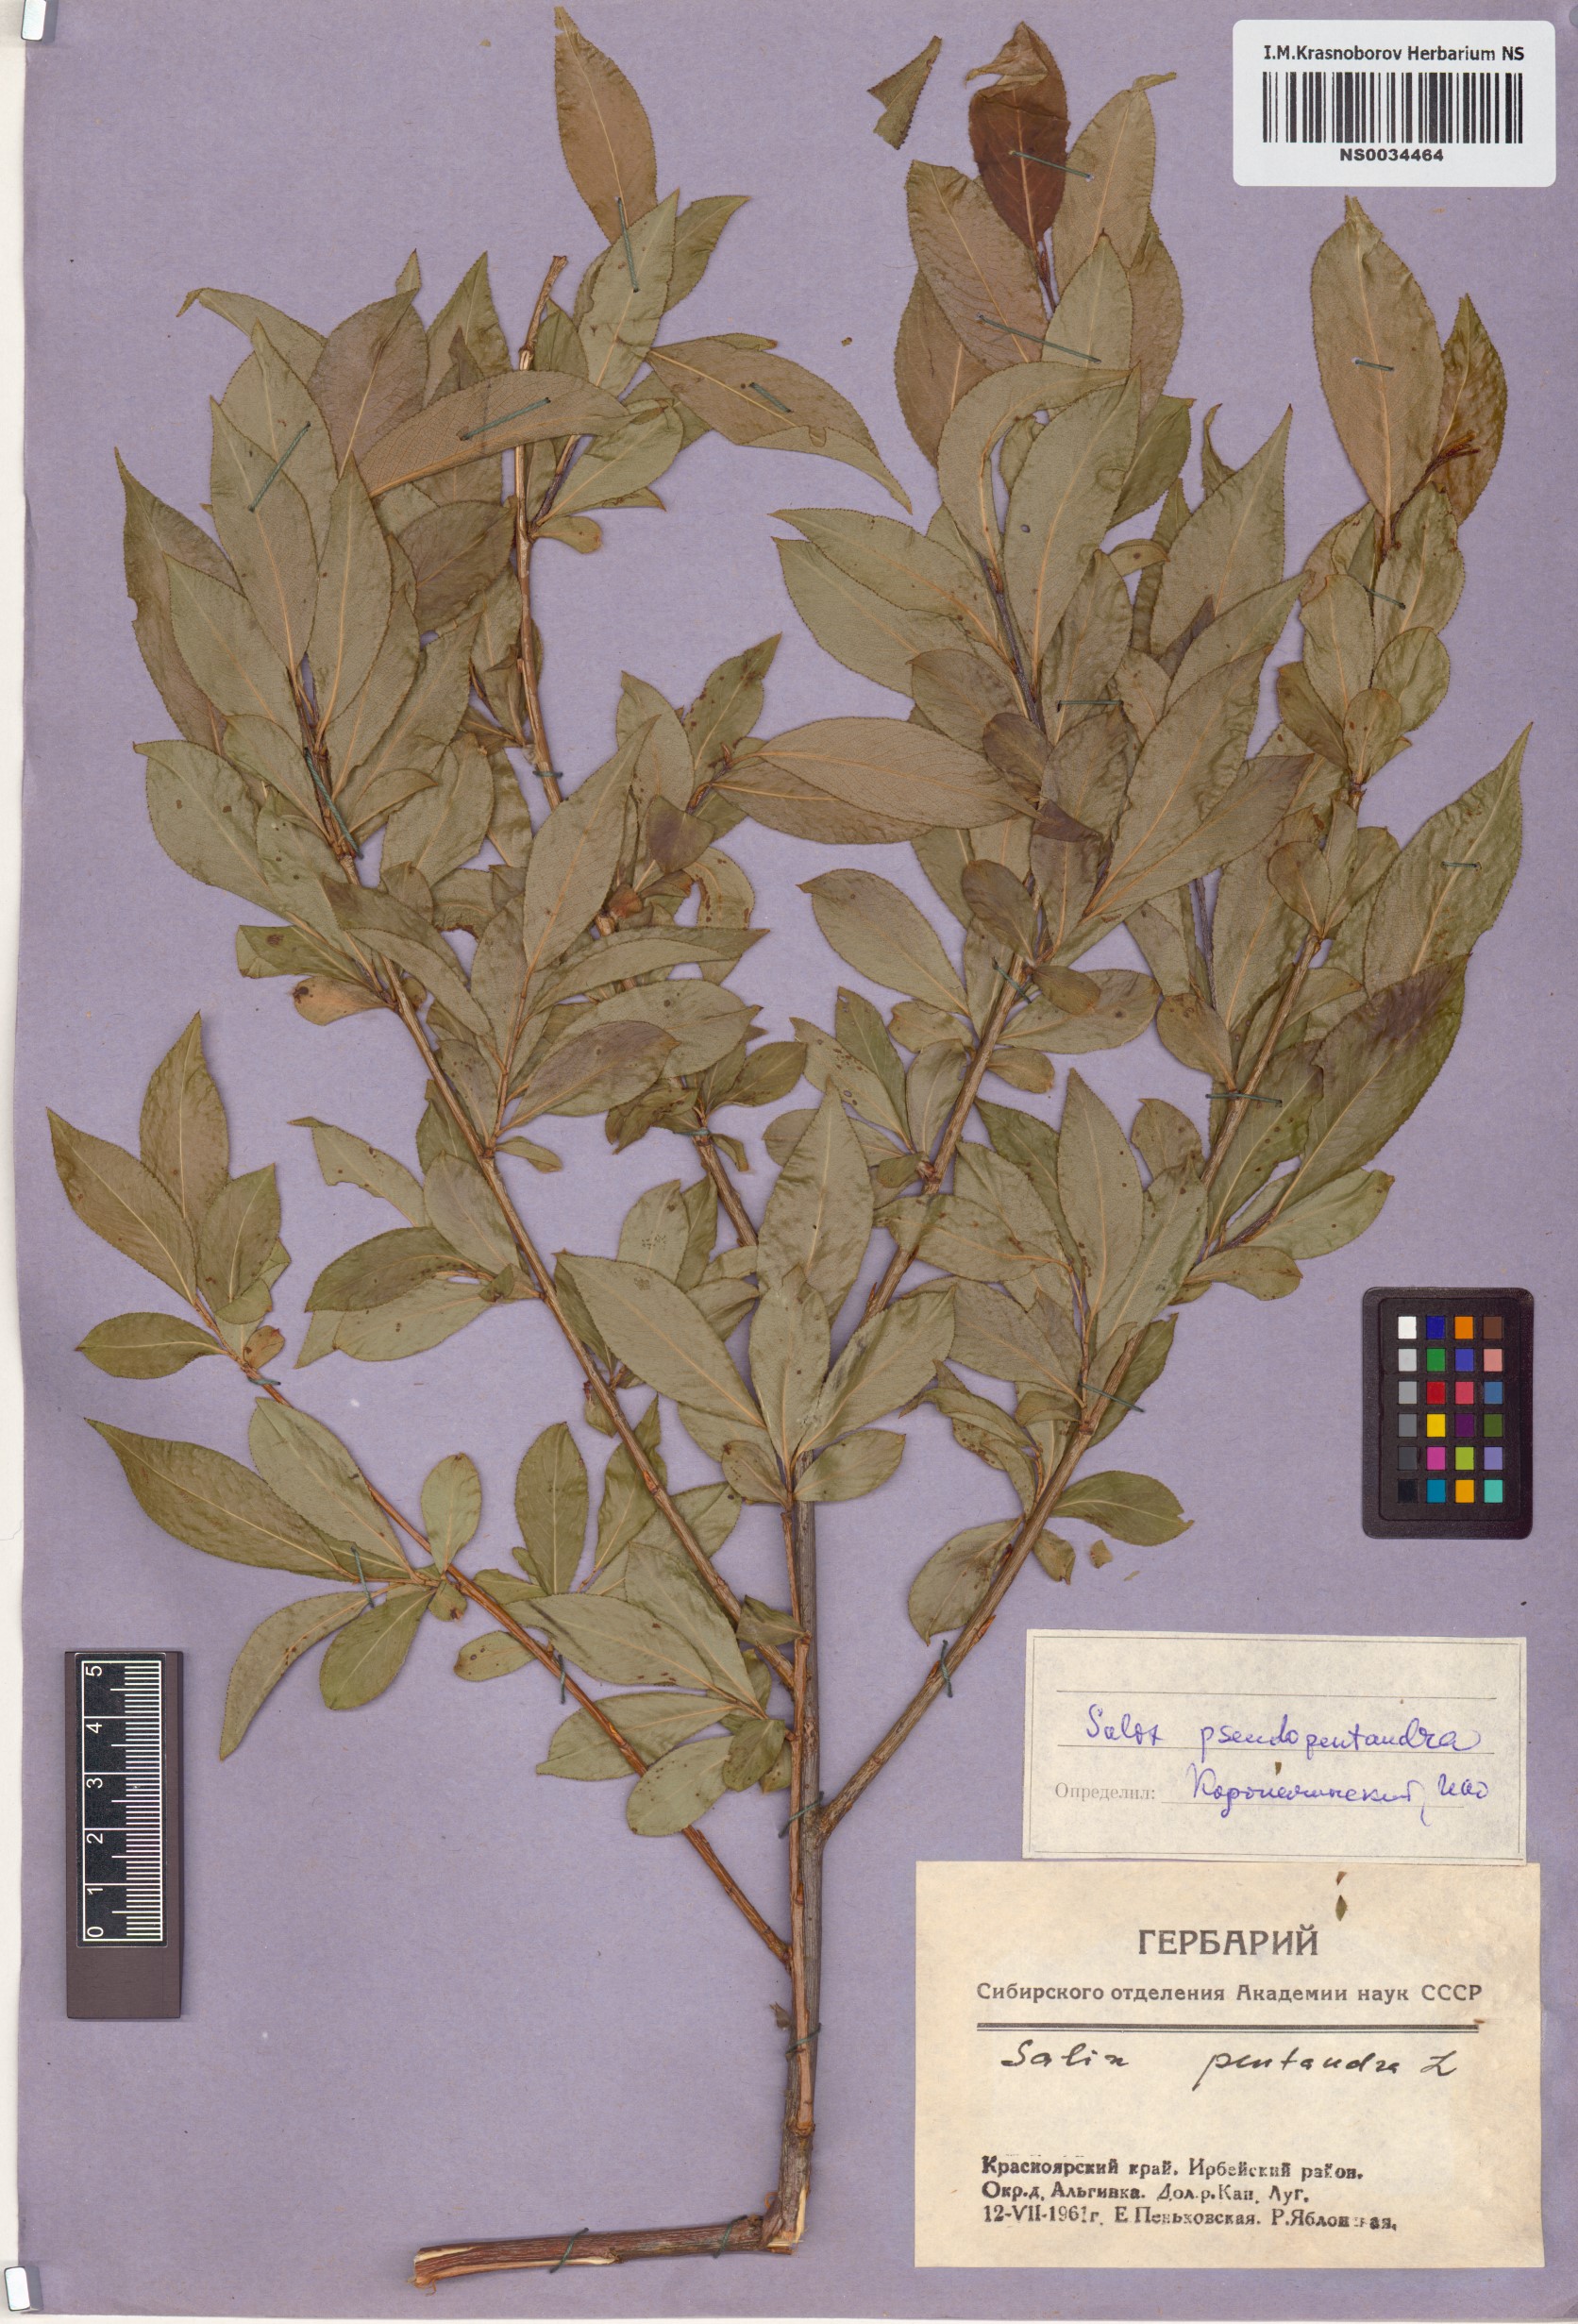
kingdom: Plantae
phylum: Tracheophyta
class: Magnoliopsida
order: Malpighiales
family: Salicaceae
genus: Salix
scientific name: Salix pseudopentandra
